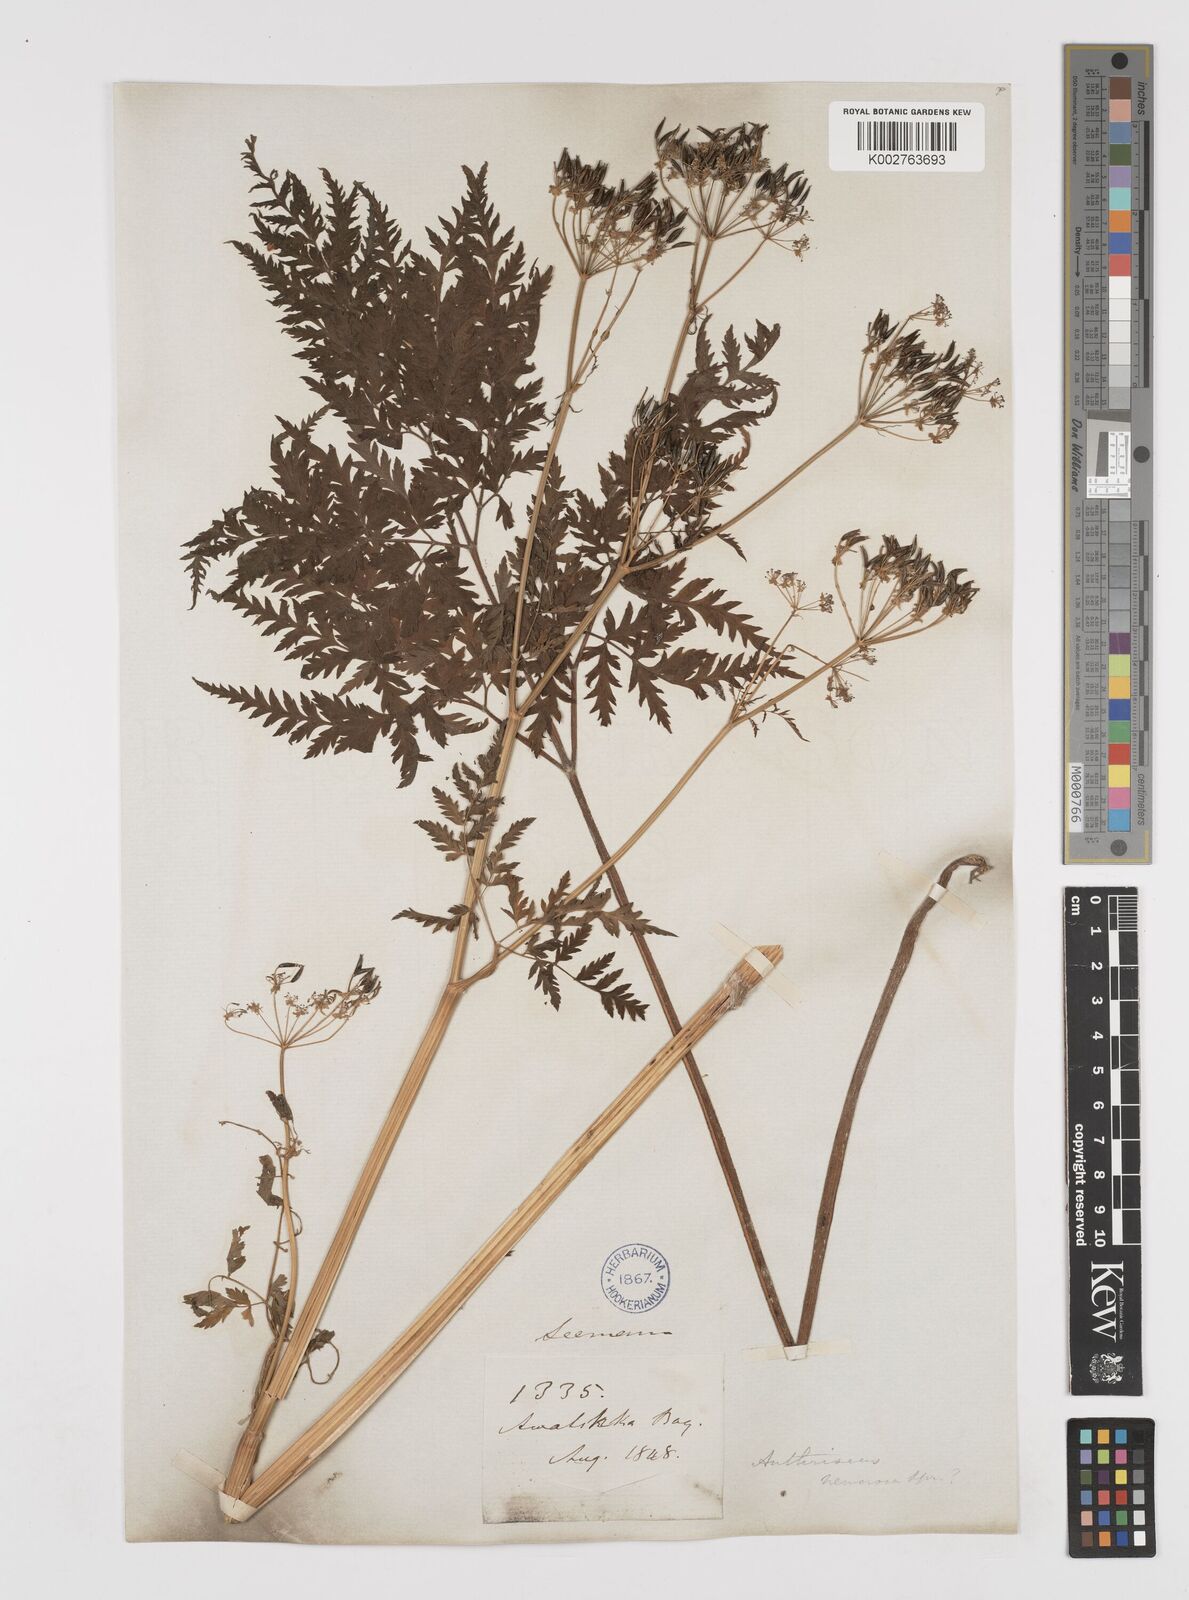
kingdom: Plantae
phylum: Tracheophyta
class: Magnoliopsida
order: Apiales
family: Apiaceae
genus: Anthriscus
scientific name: Anthriscus sylvestris
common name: Cow parsley
